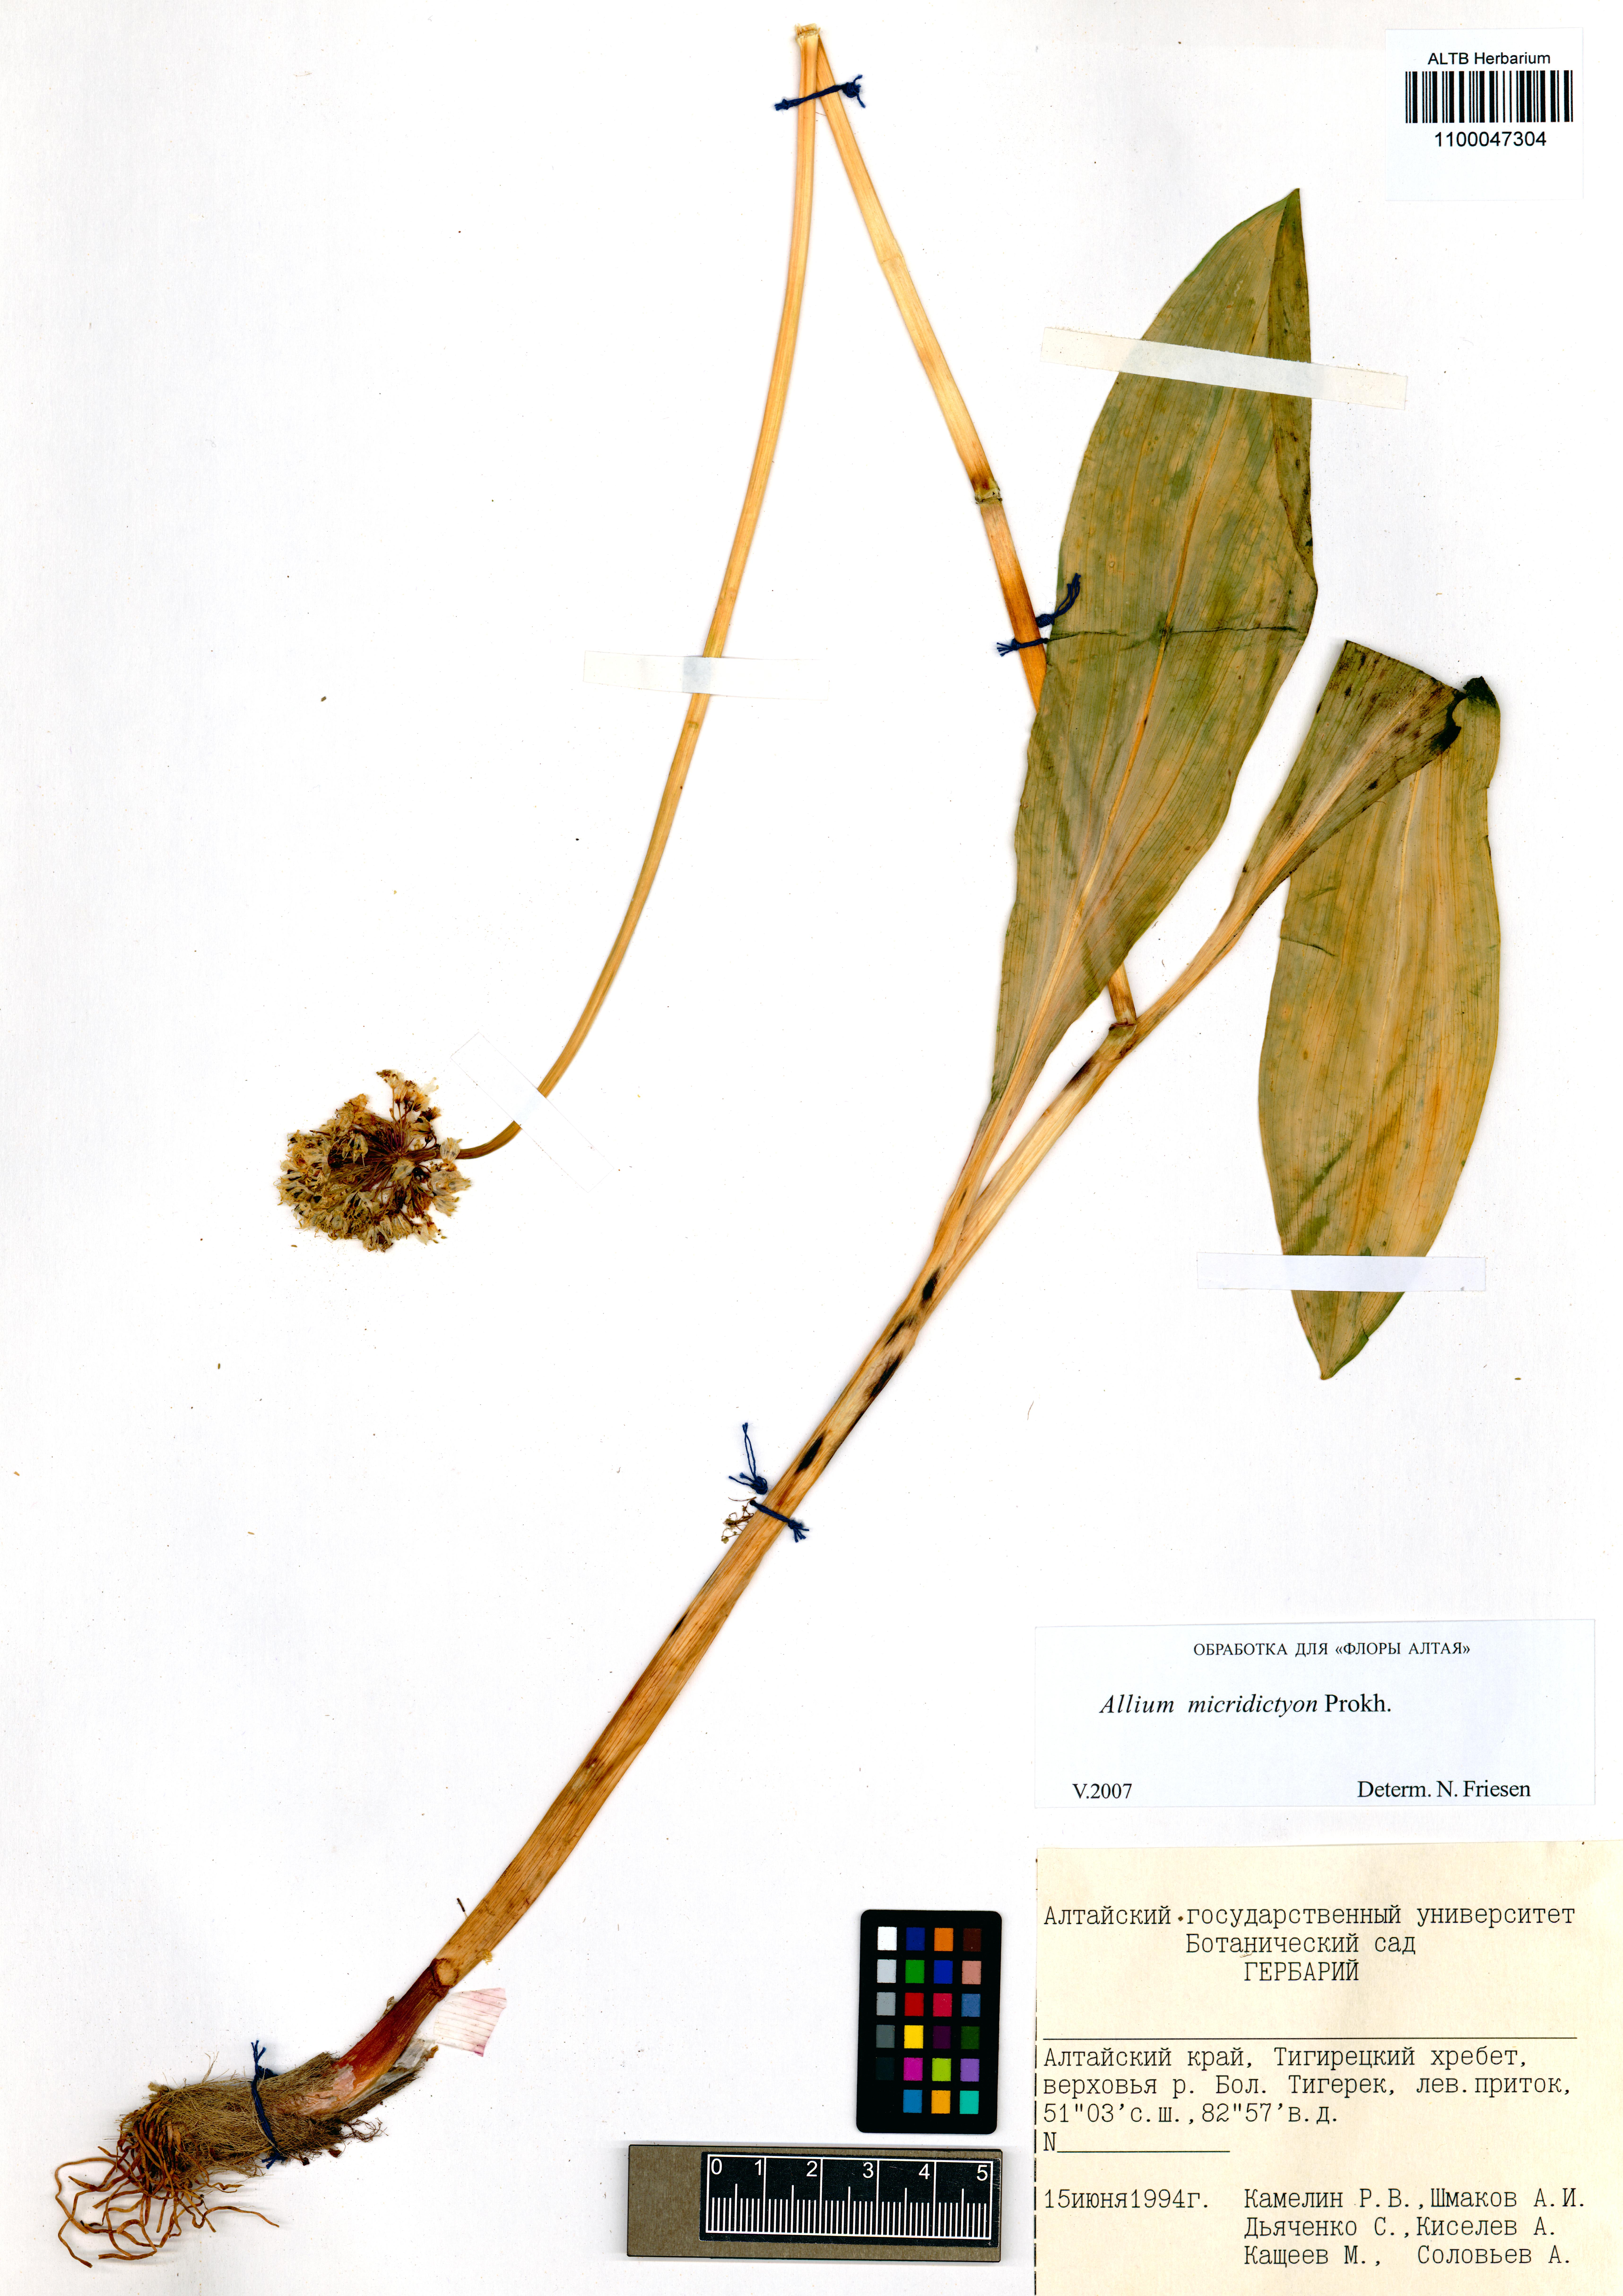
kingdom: Plantae
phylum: Tracheophyta
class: Liliopsida
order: Asparagales
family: Amaryllidaceae
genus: Allium
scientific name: Allium microdictyon
